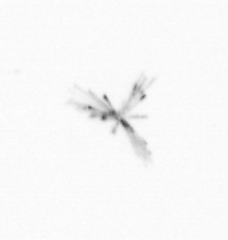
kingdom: Chromista
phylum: Ochrophyta
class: Bacillariophyceae
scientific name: Bacillariophyceae
